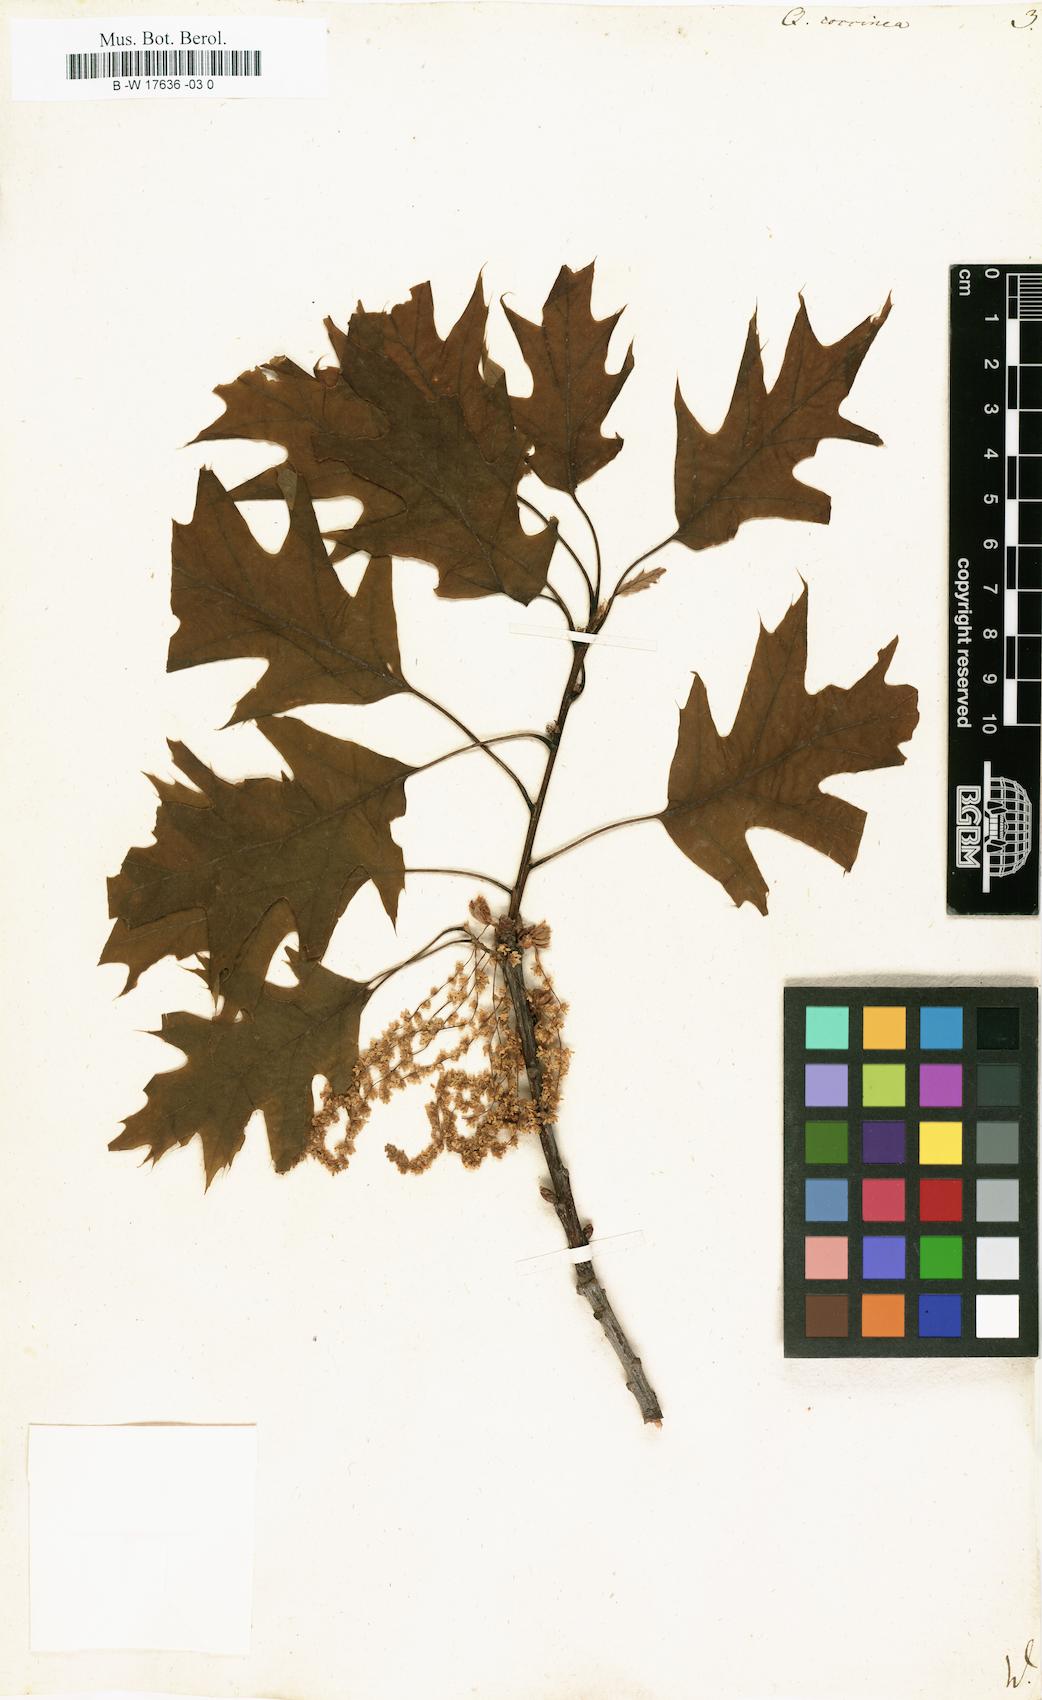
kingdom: Plantae
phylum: Tracheophyta
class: Magnoliopsida
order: Fagales
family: Fagaceae
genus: Quercus
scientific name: Quercus coccinea
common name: Scarlet oak
